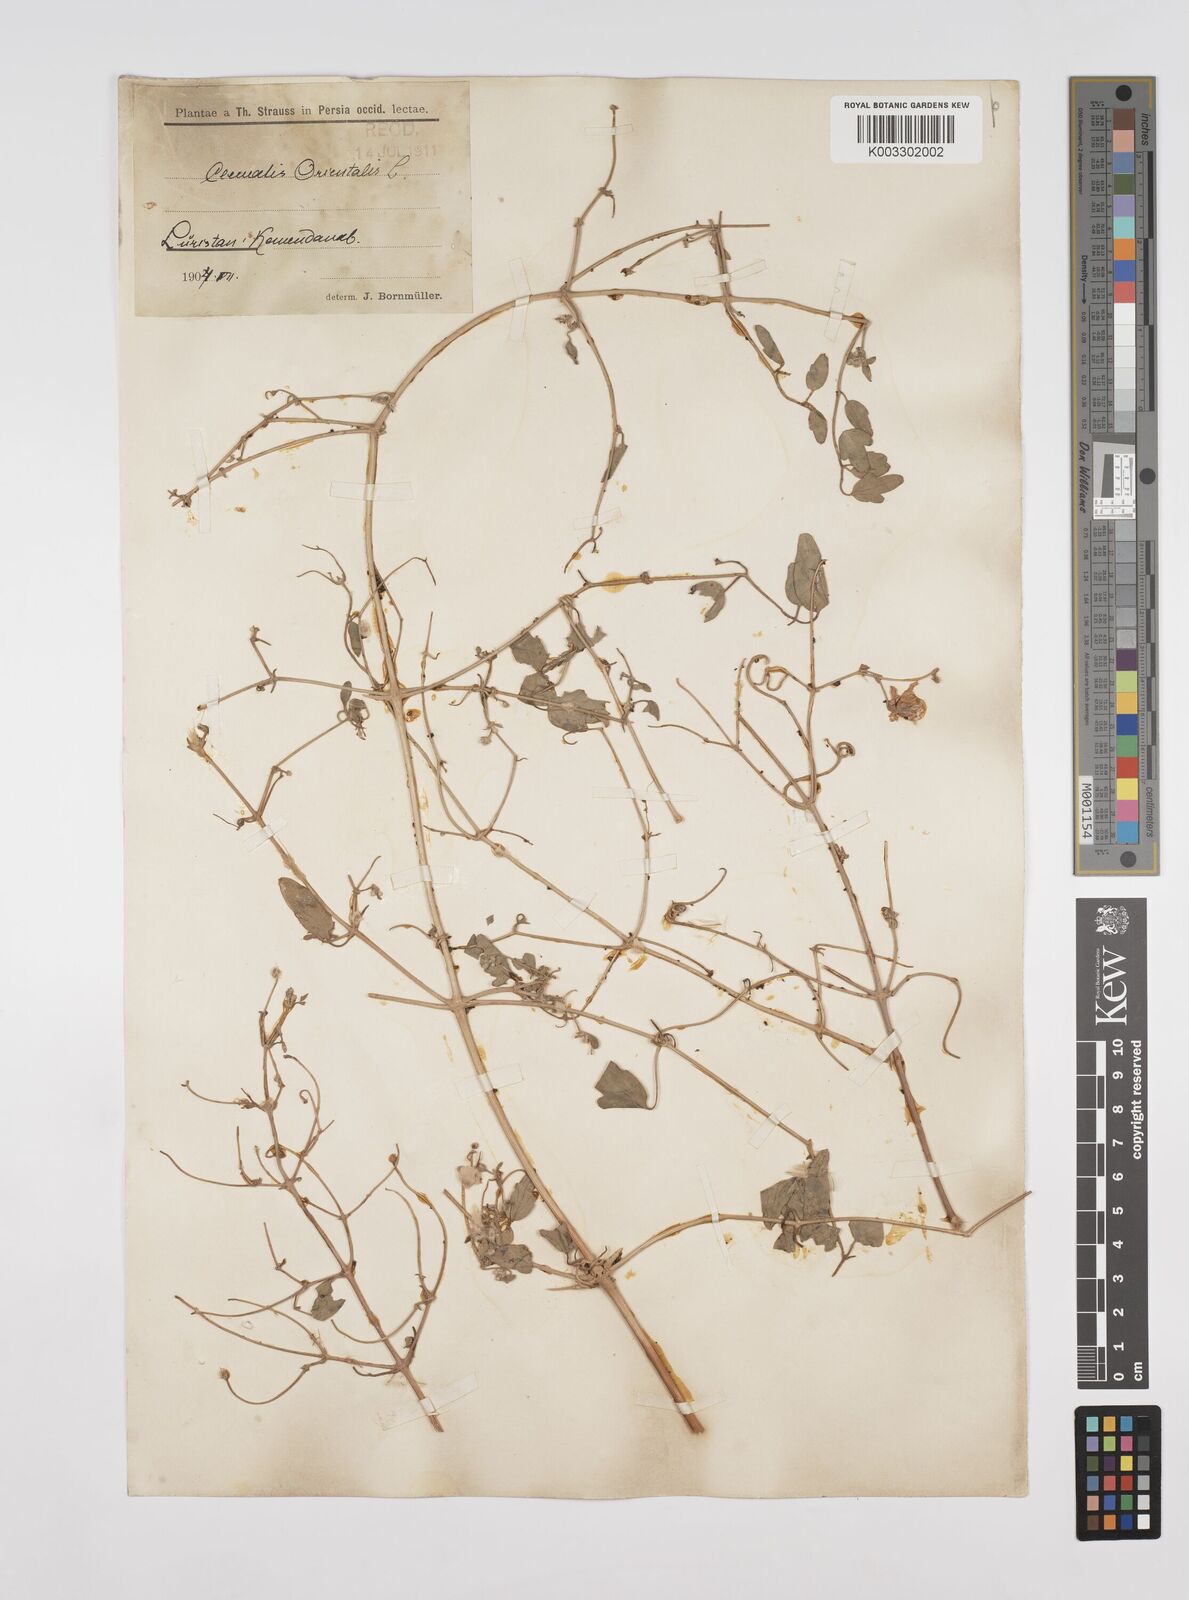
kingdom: Plantae
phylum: Tracheophyta
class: Magnoliopsida
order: Ranunculales
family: Ranunculaceae
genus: Clematis
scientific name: Clematis orientalis
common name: Oriental virgin's-bower
